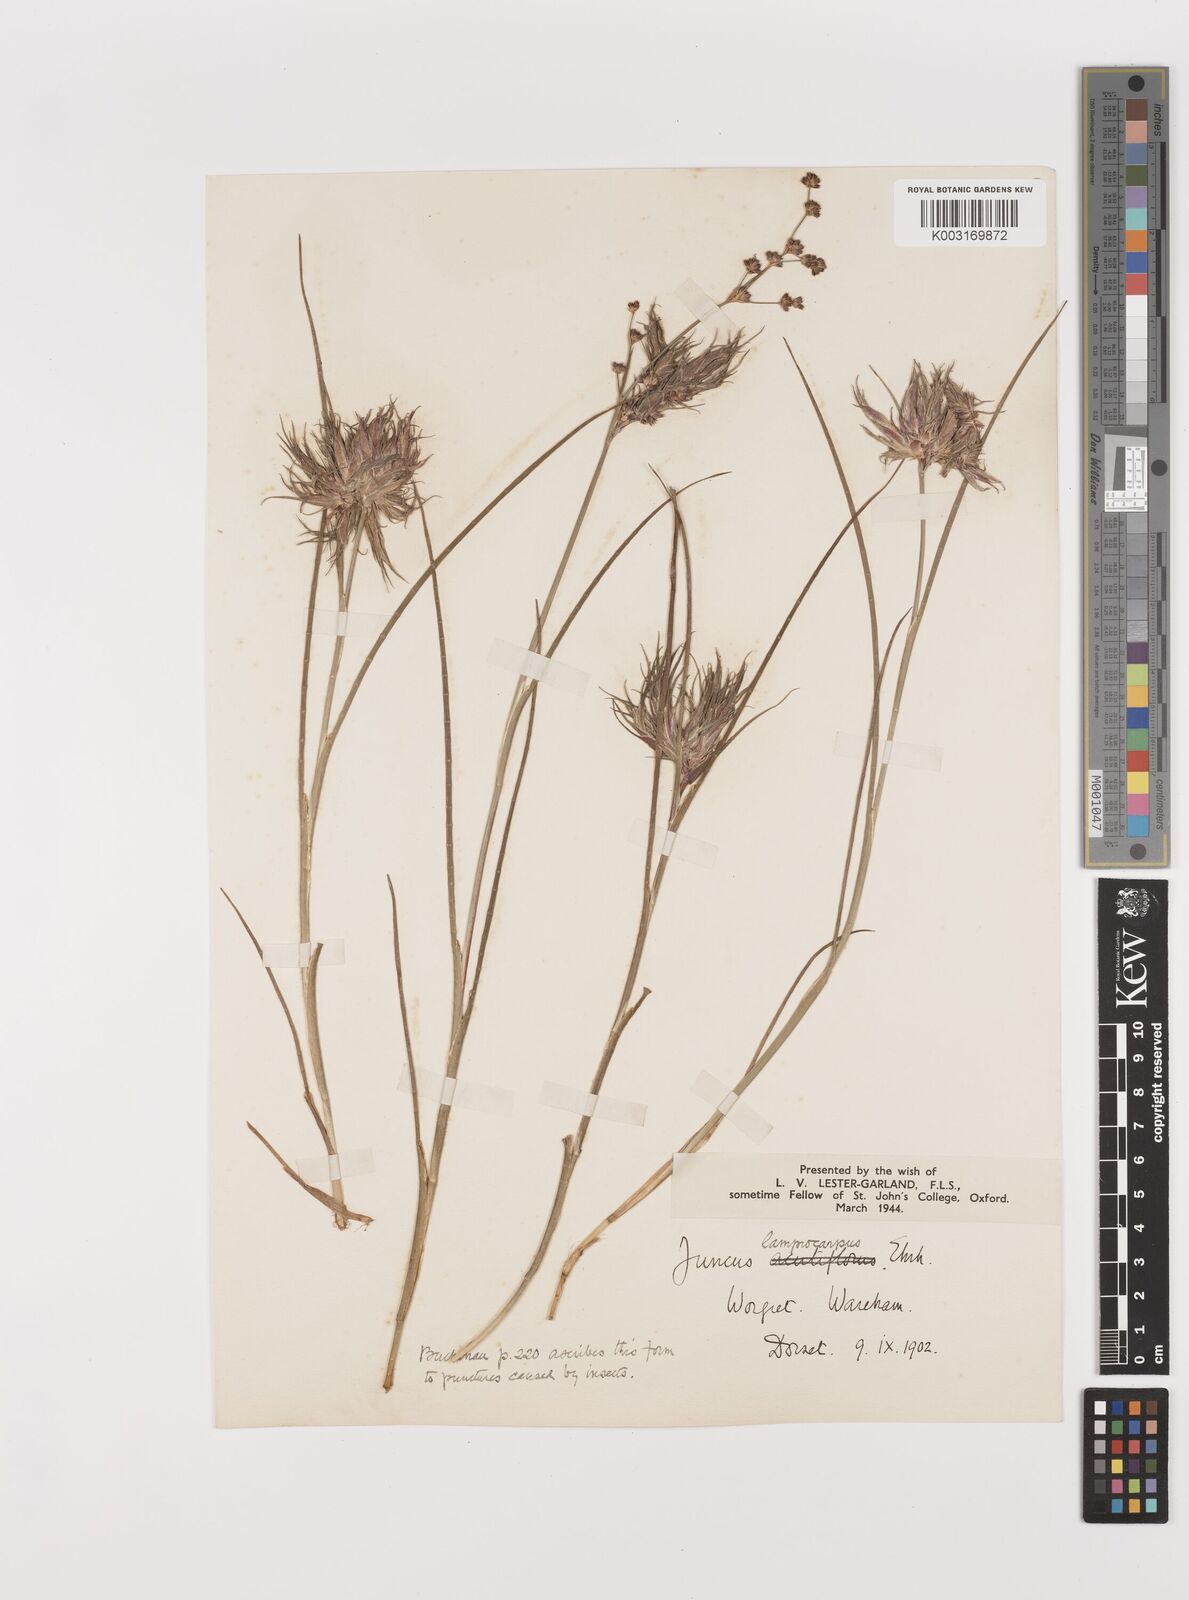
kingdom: Plantae
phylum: Tracheophyta
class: Liliopsida
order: Poales
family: Juncaceae
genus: Juncus
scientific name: Juncus articulatus
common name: Jointed rush
